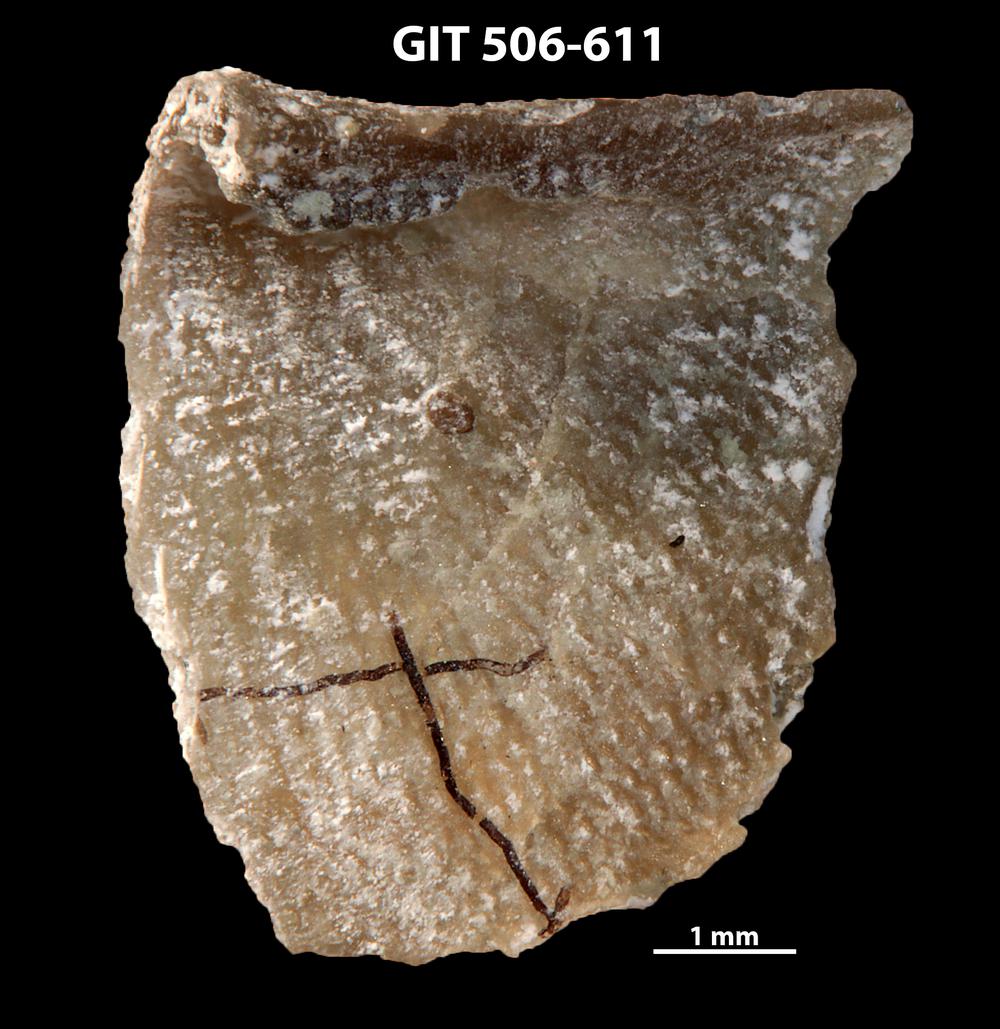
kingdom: Animalia
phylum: Brachiopoda
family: Oldhaminidae
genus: Eoplectodonta
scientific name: Eoplectodonta exceptionis
